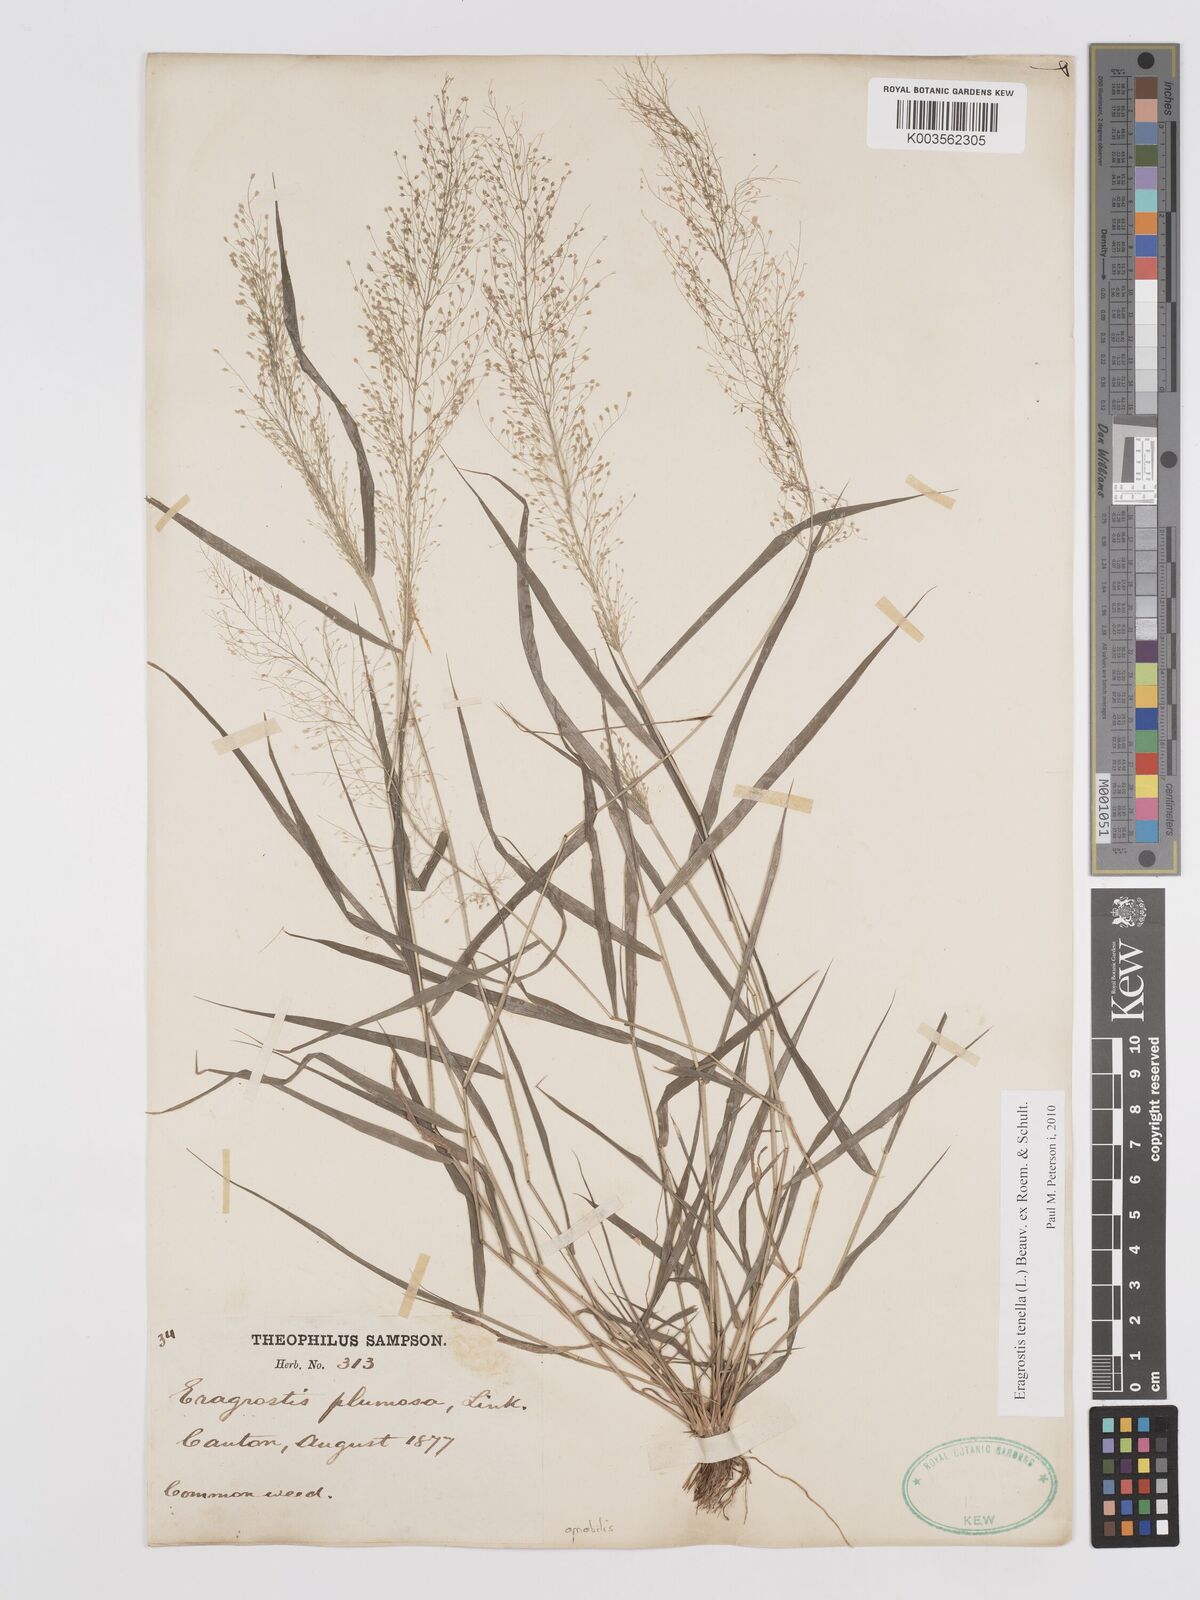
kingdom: Plantae
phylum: Tracheophyta
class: Liliopsida
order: Poales
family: Poaceae
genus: Eragrostis
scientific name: Eragrostis tenella
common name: Japanese lovegrass
